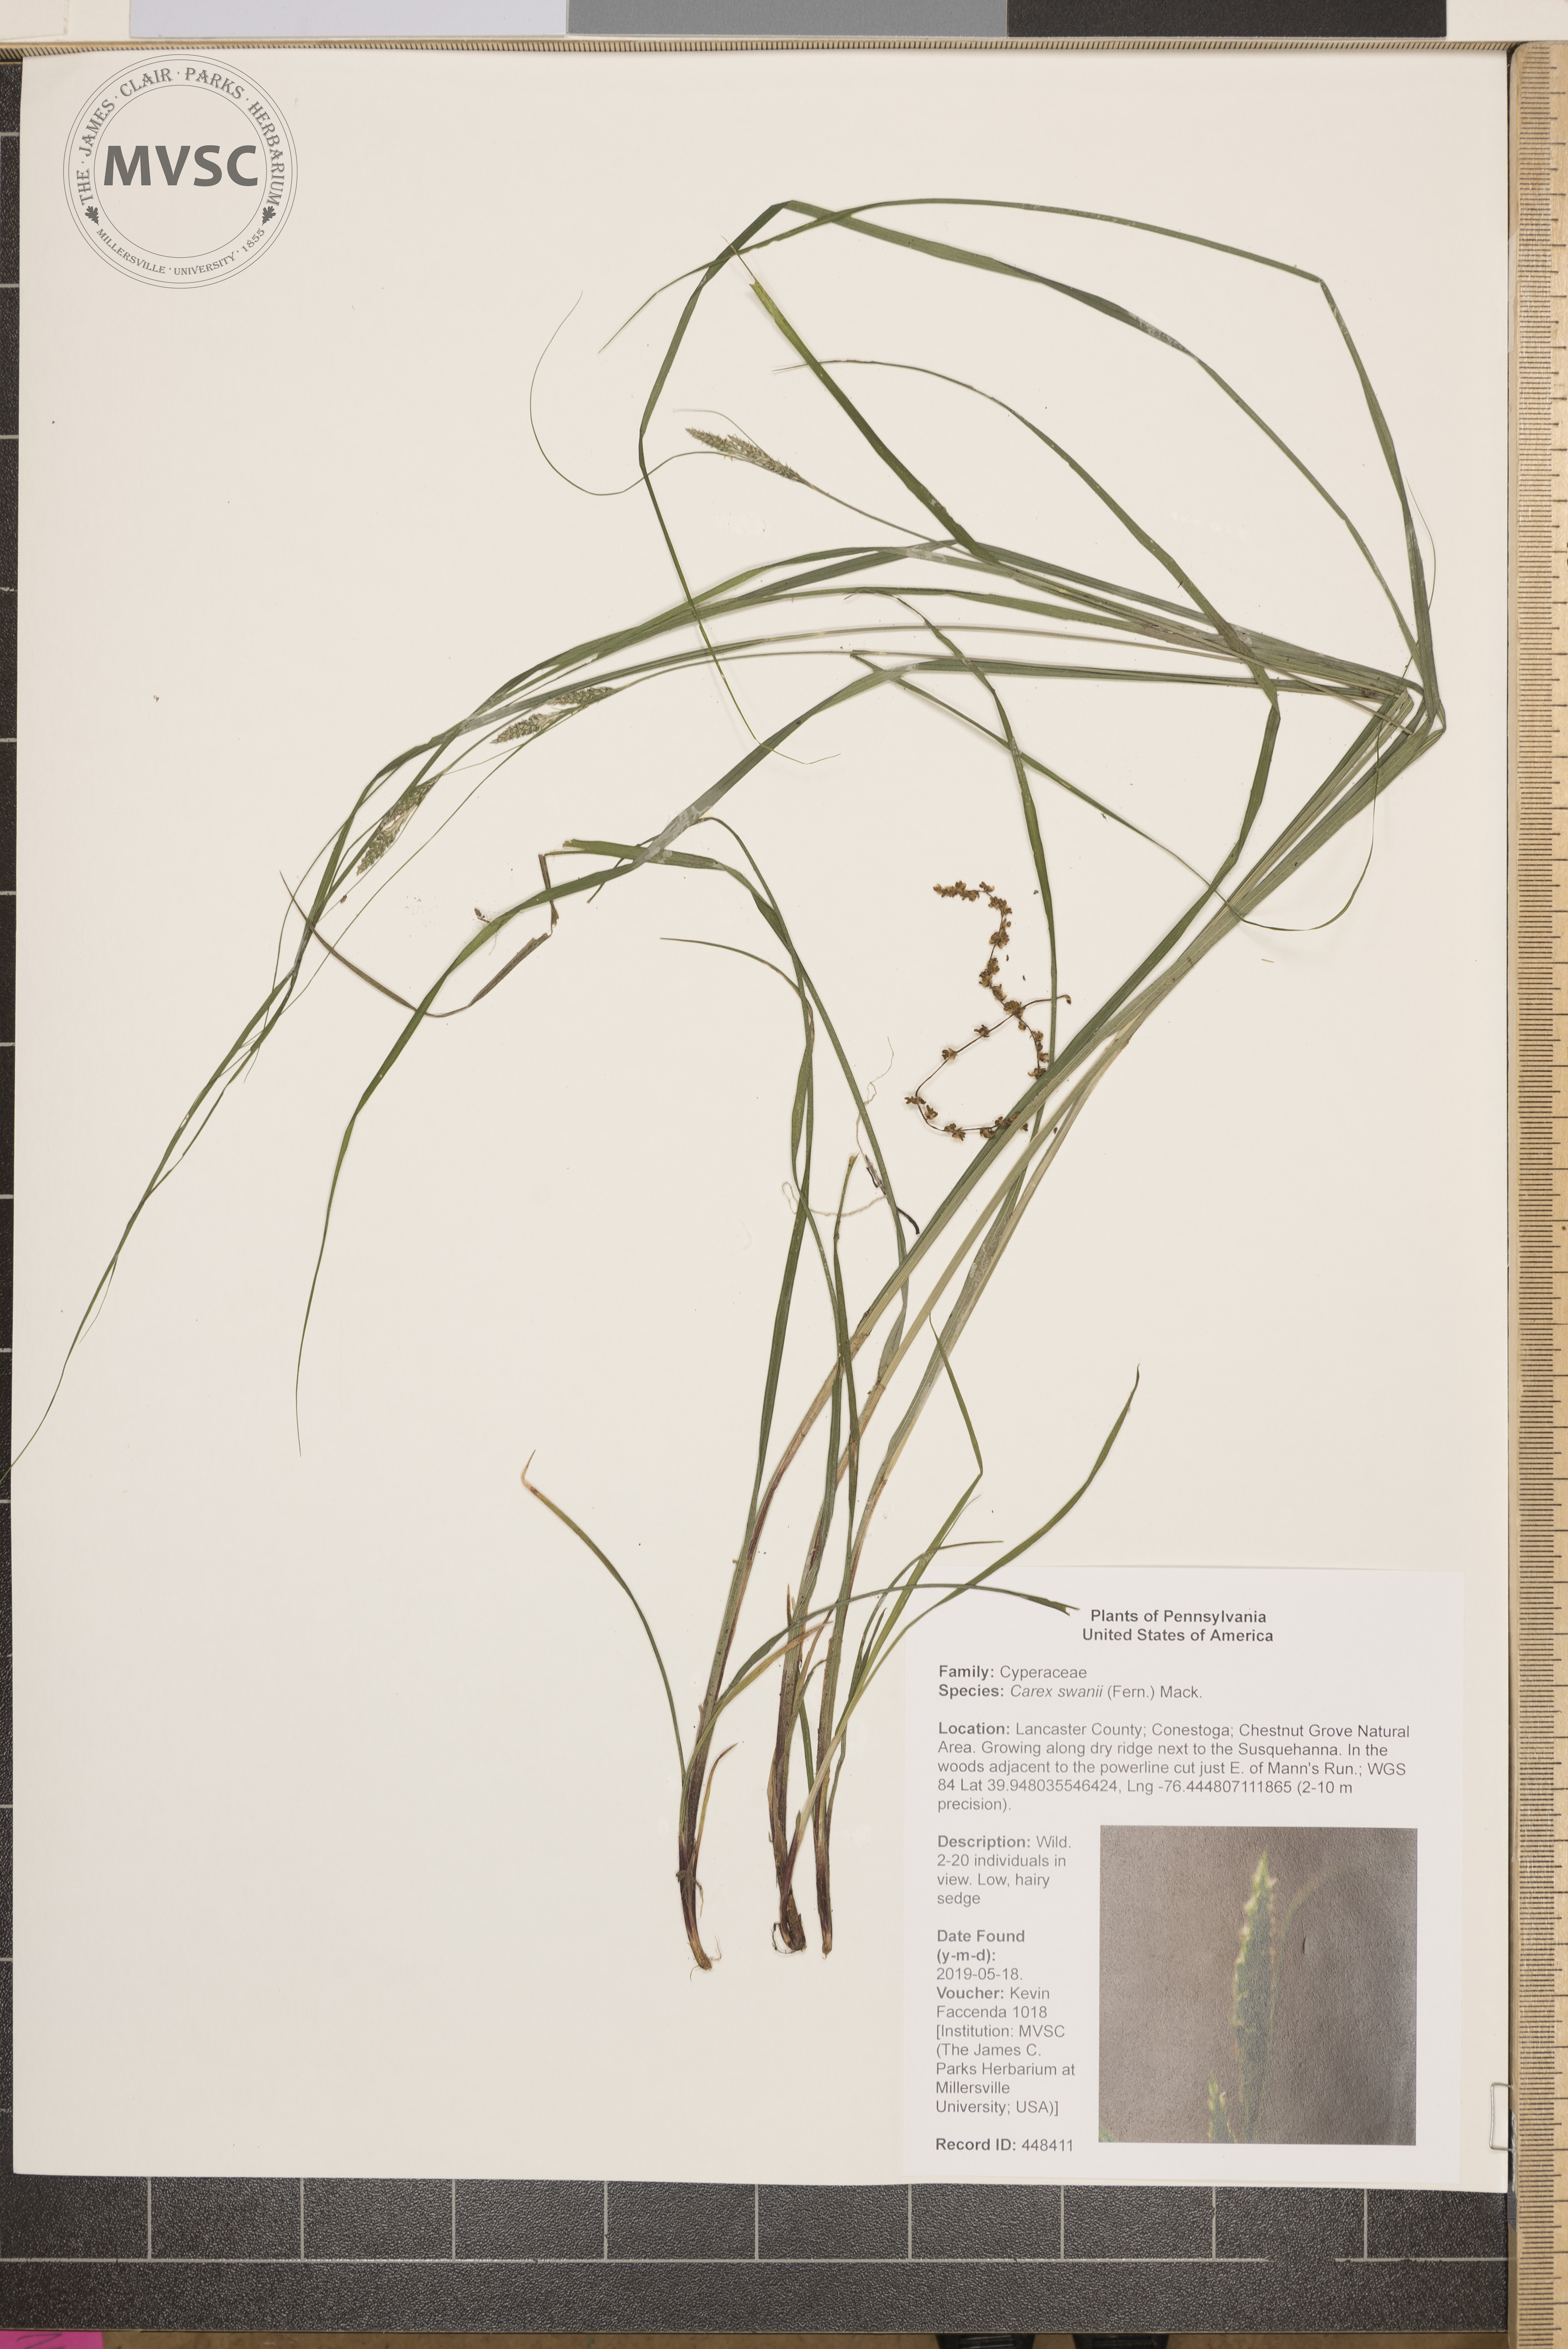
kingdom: Plantae
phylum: Tracheophyta
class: Liliopsida
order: Poales
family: Cyperaceae
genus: Carex
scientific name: Carex swanii
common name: Downy green sedge
